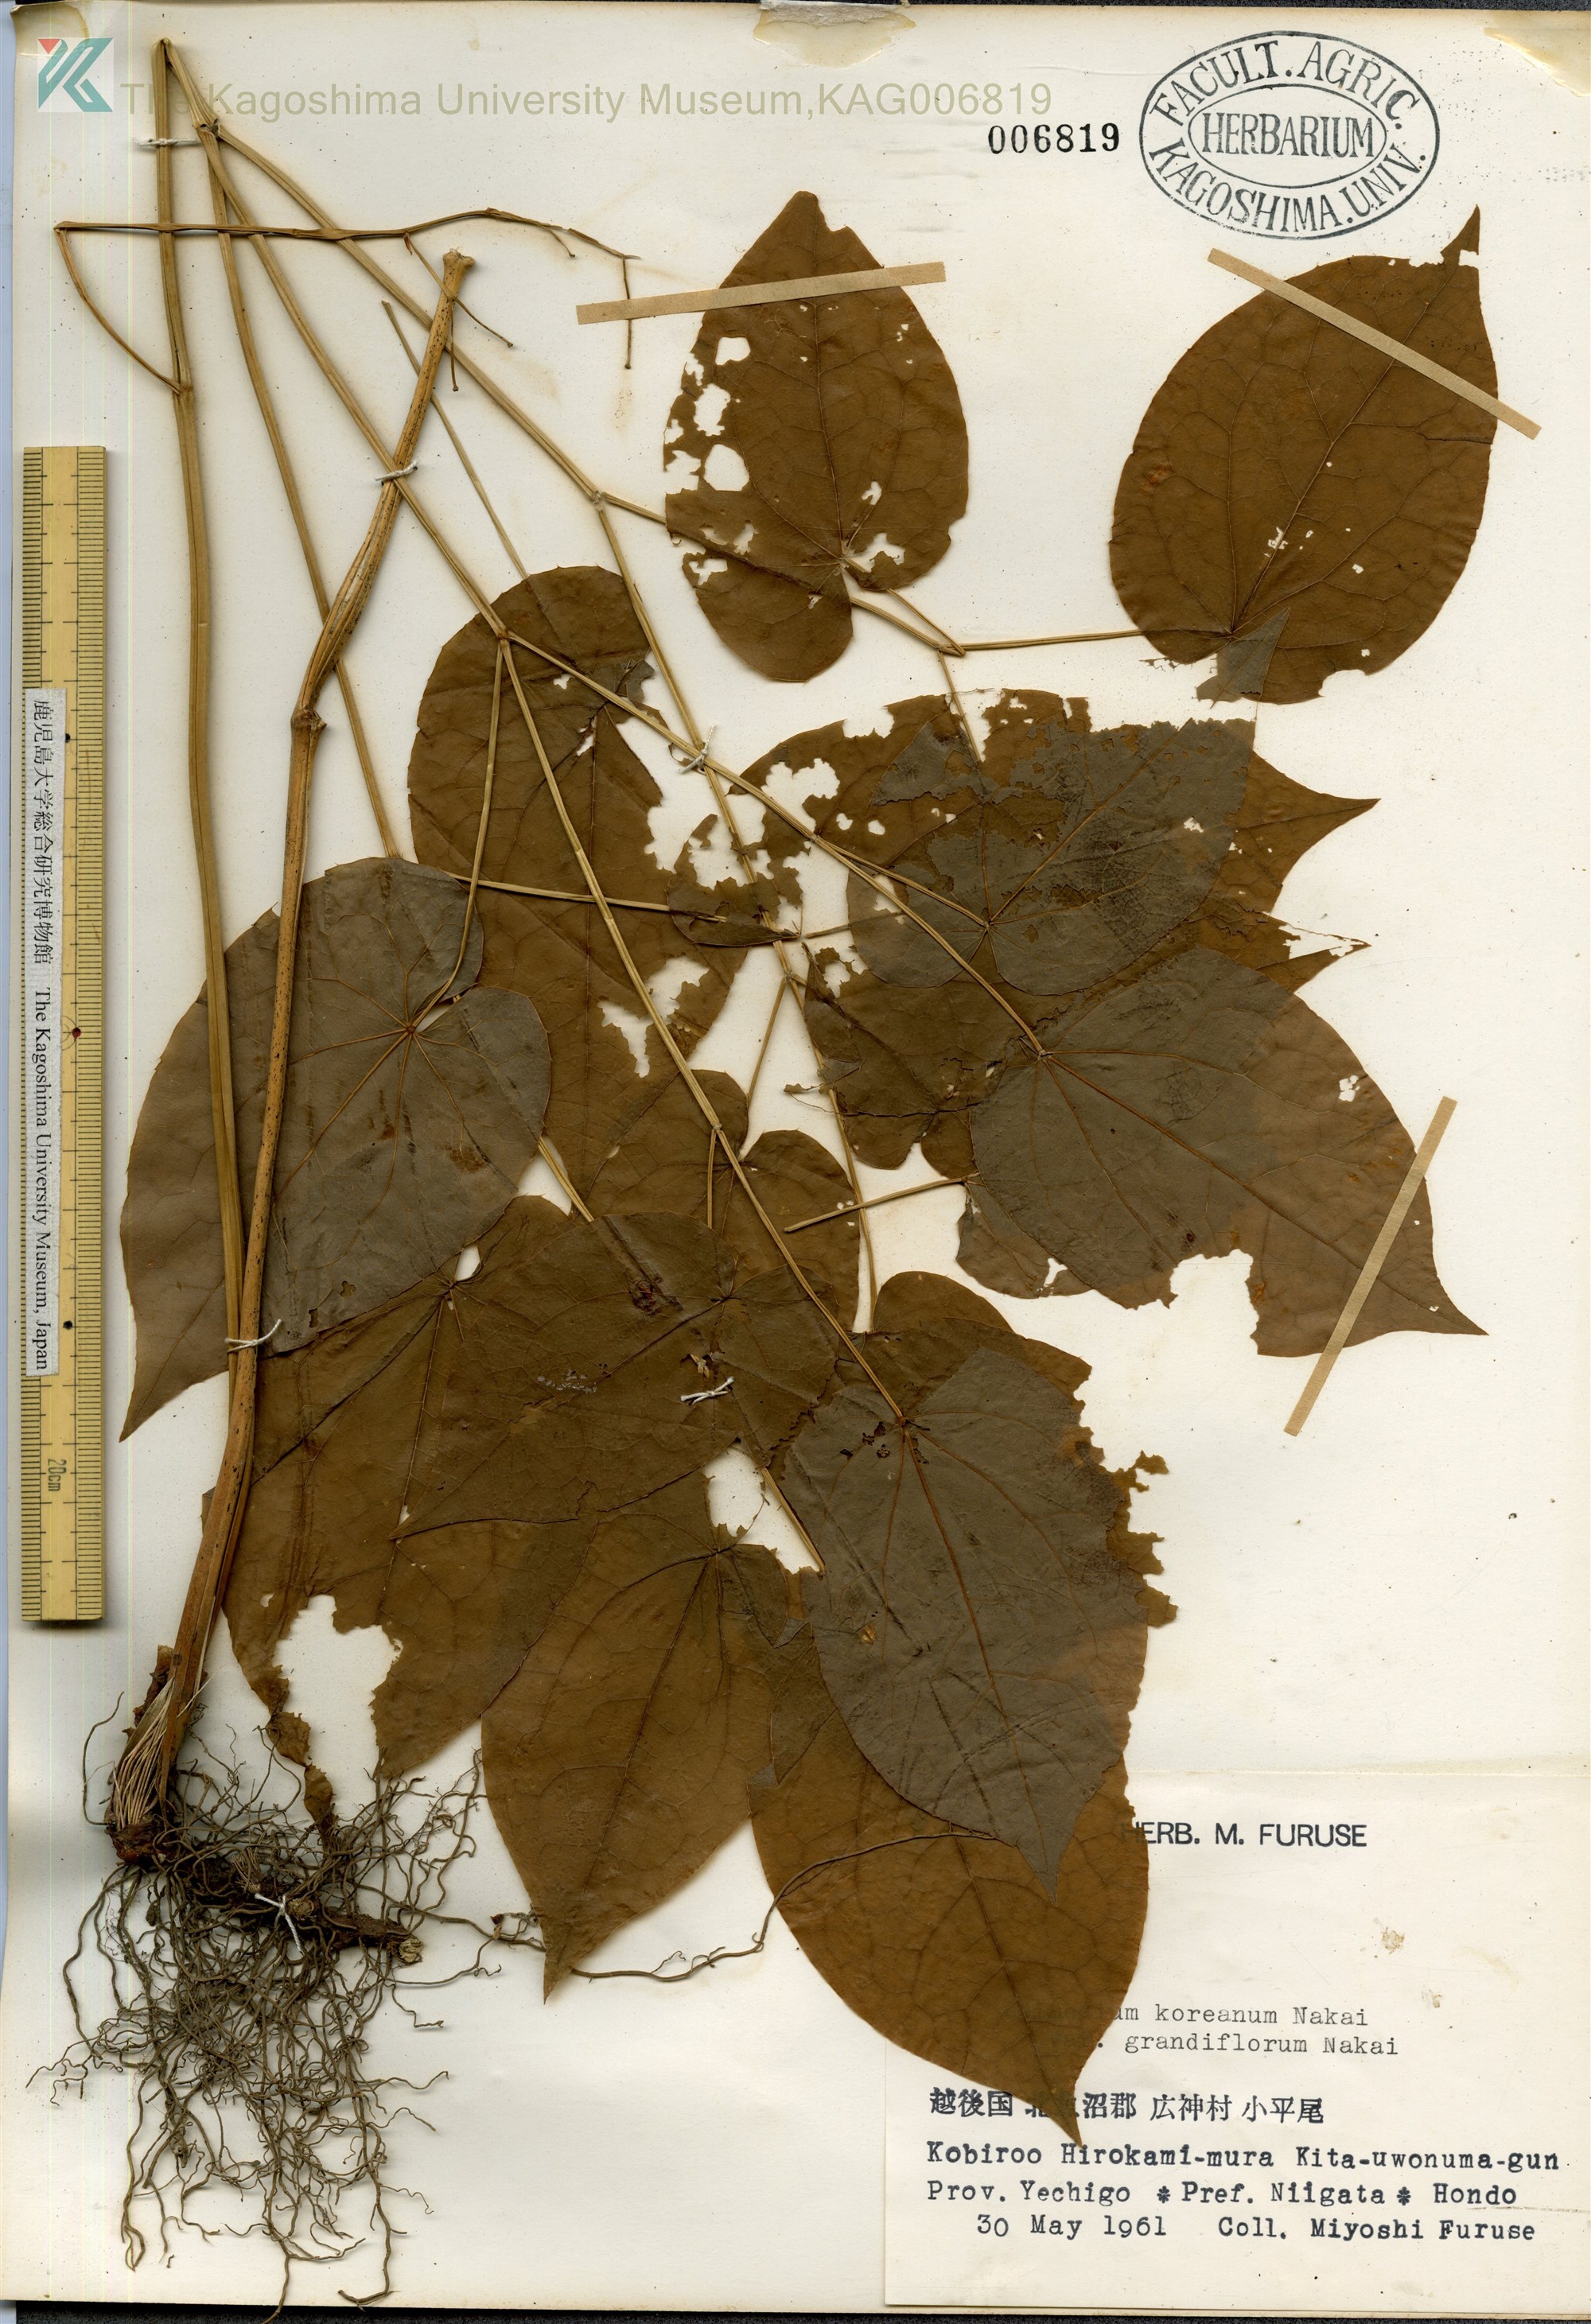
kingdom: Plantae
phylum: Tracheophyta
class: Magnoliopsida
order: Ranunculales
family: Berberidaceae
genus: Epimedium
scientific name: Epimedium koreanum
